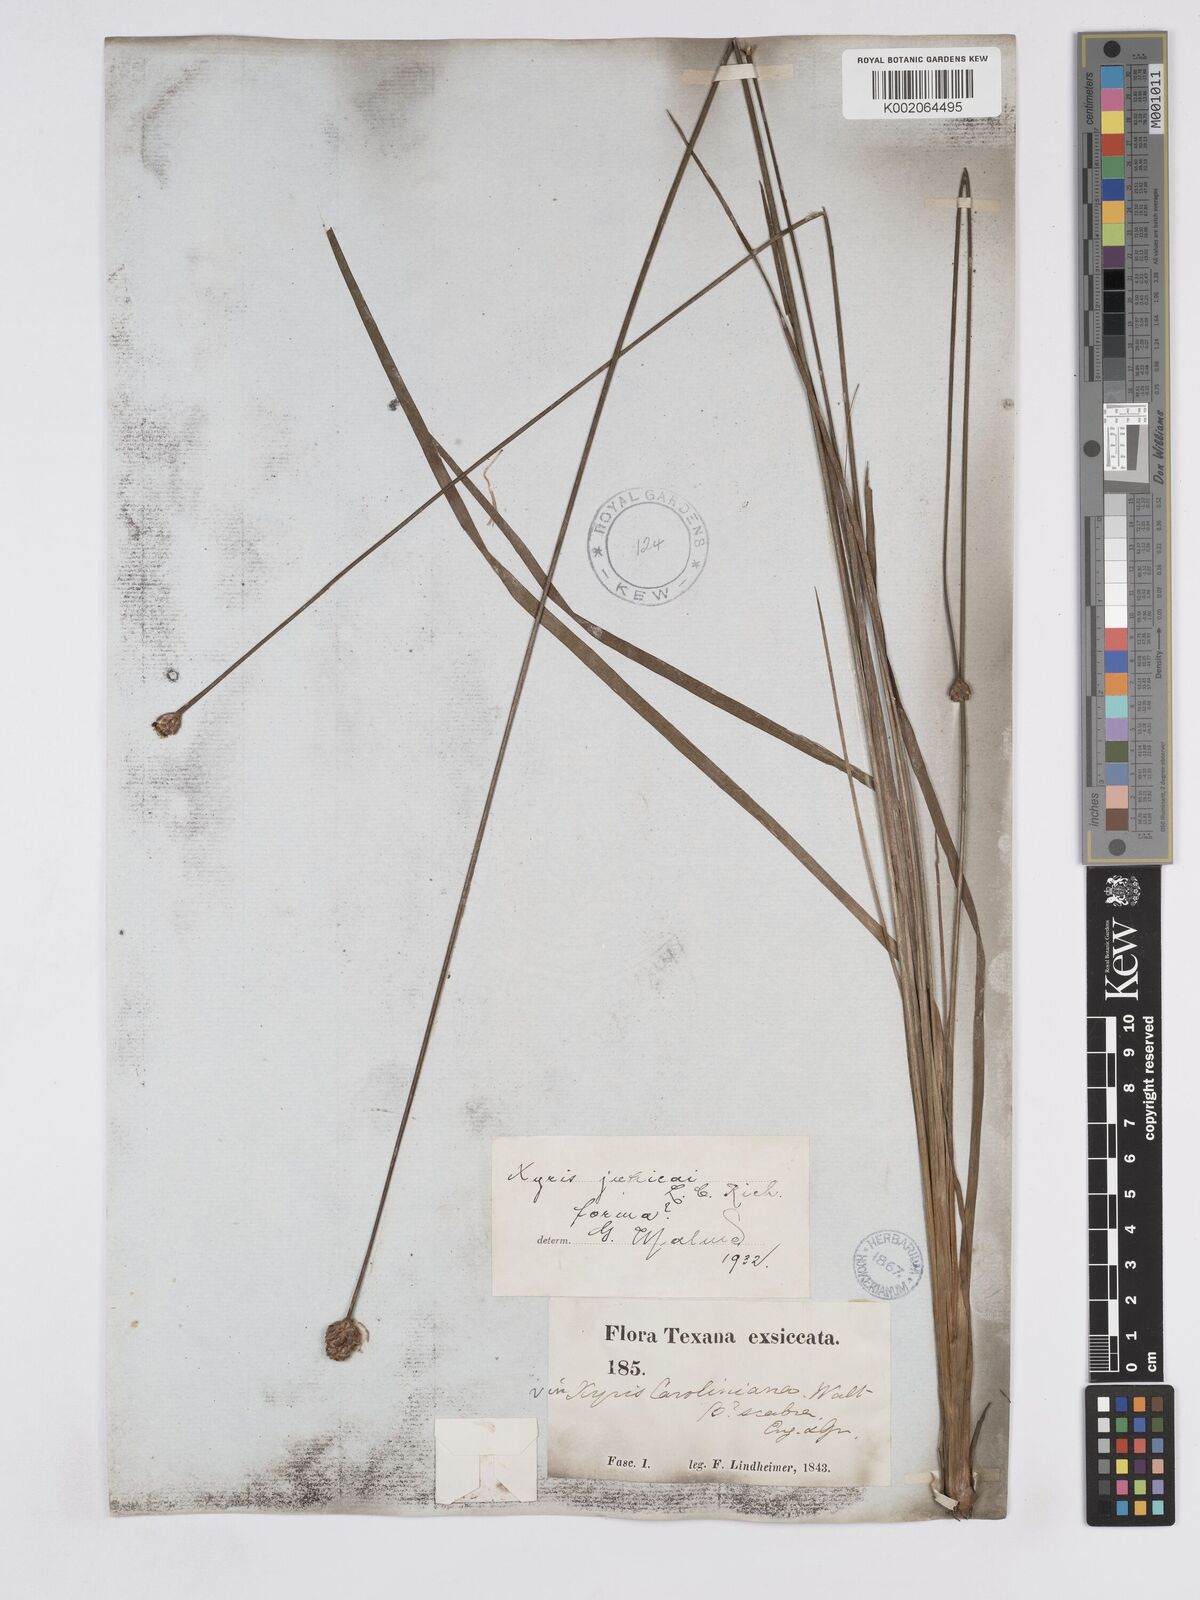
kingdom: Plantae
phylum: Tracheophyta
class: Liliopsida
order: Poales
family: Xyridaceae
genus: Xyris
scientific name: Xyris jupicai
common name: Richard's yelloweyed grass
